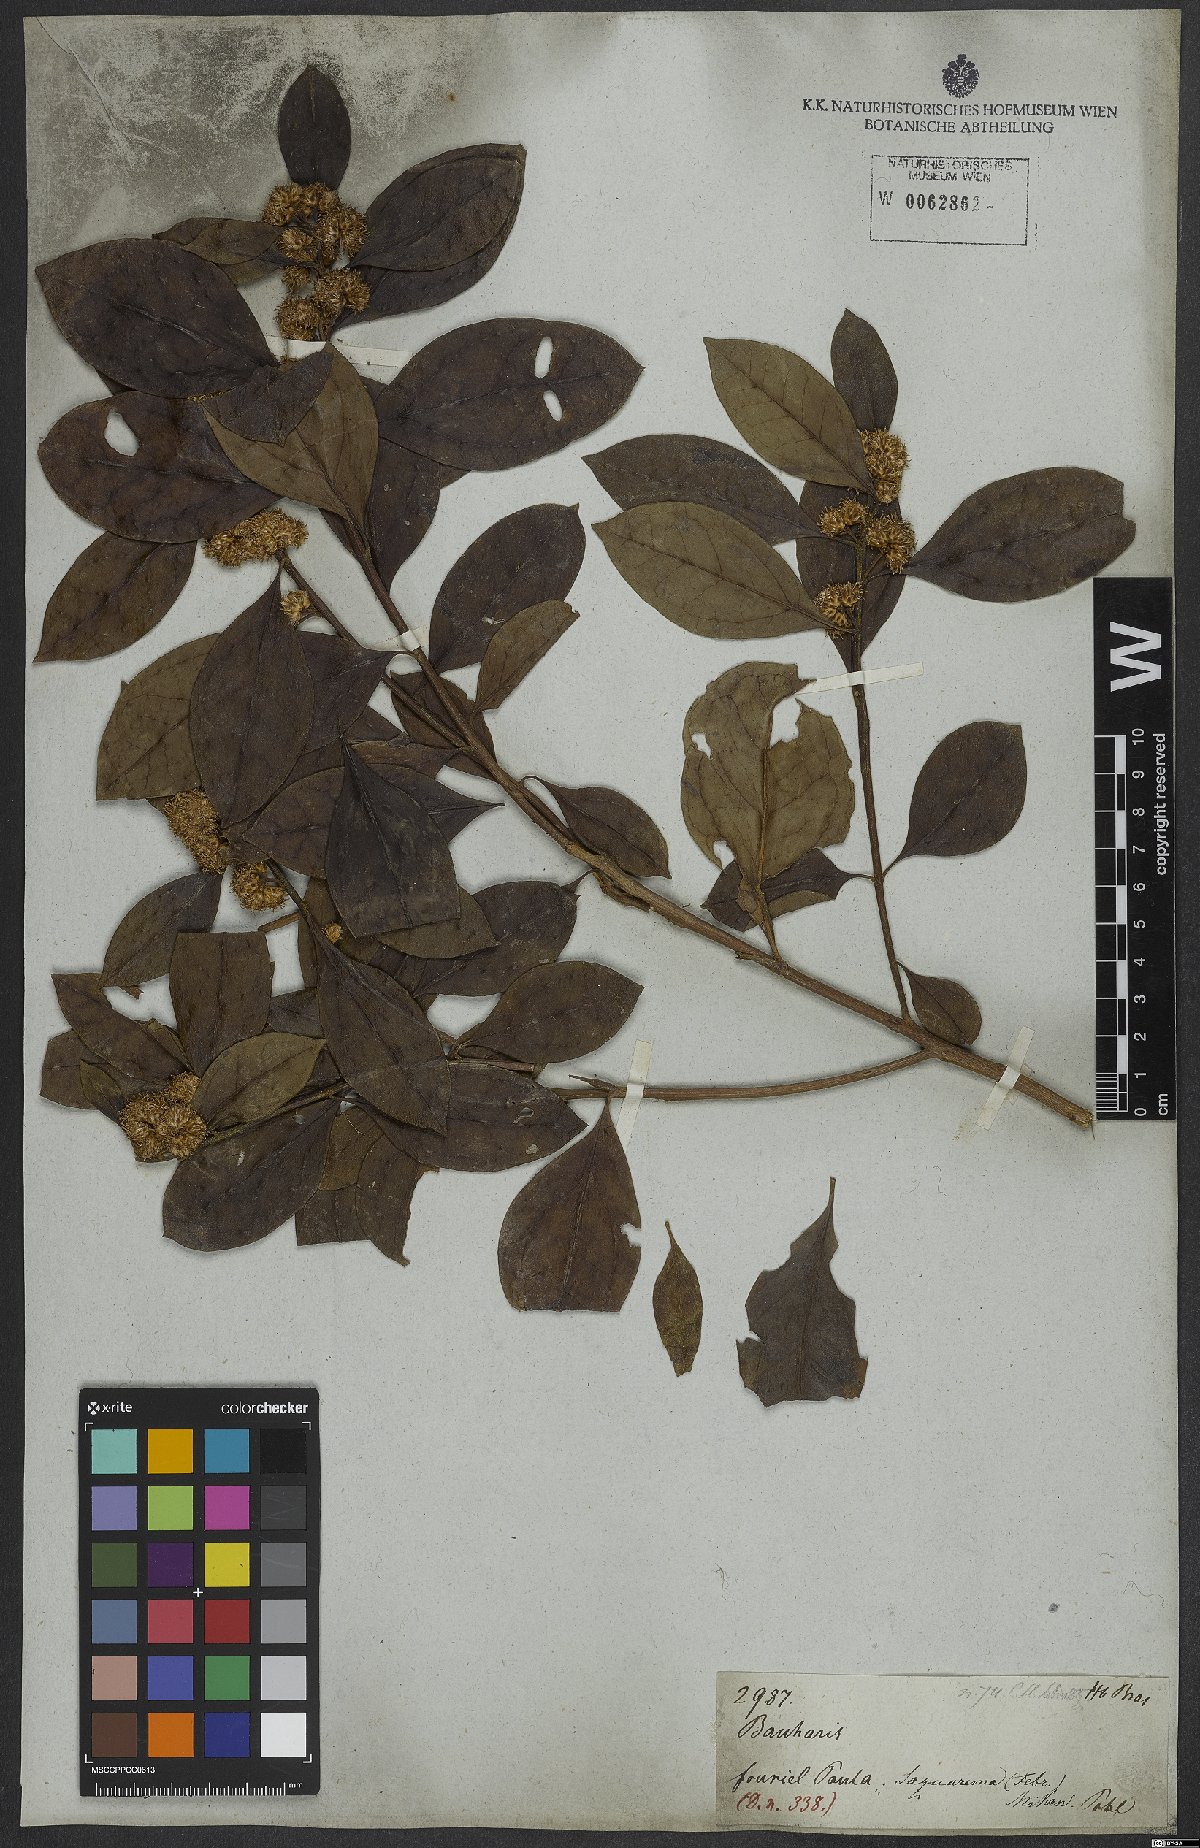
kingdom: Plantae
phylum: Tracheophyta
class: Magnoliopsida
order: Asterales
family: Asteraceae
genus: Baccharis
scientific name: Baccharis
